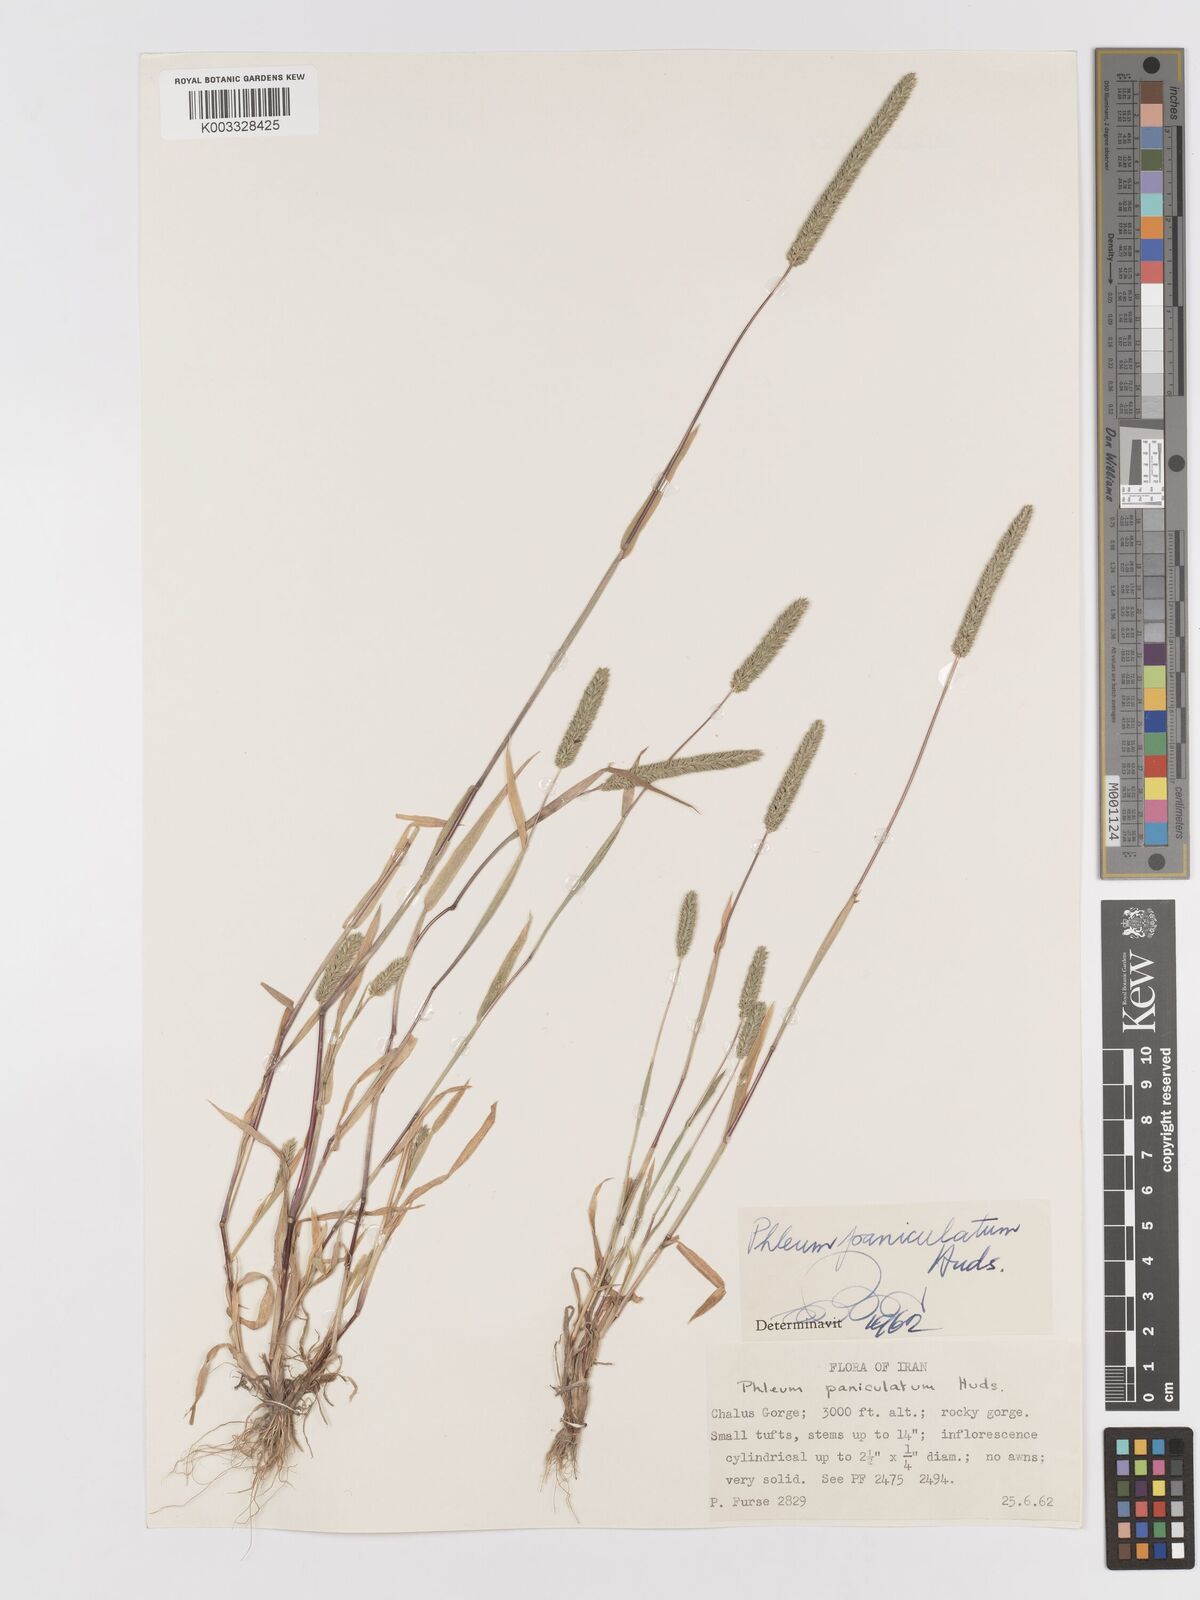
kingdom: Plantae
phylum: Tracheophyta
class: Liliopsida
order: Poales
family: Poaceae
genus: Phleum
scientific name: Phleum paniculatum
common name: British timothy
